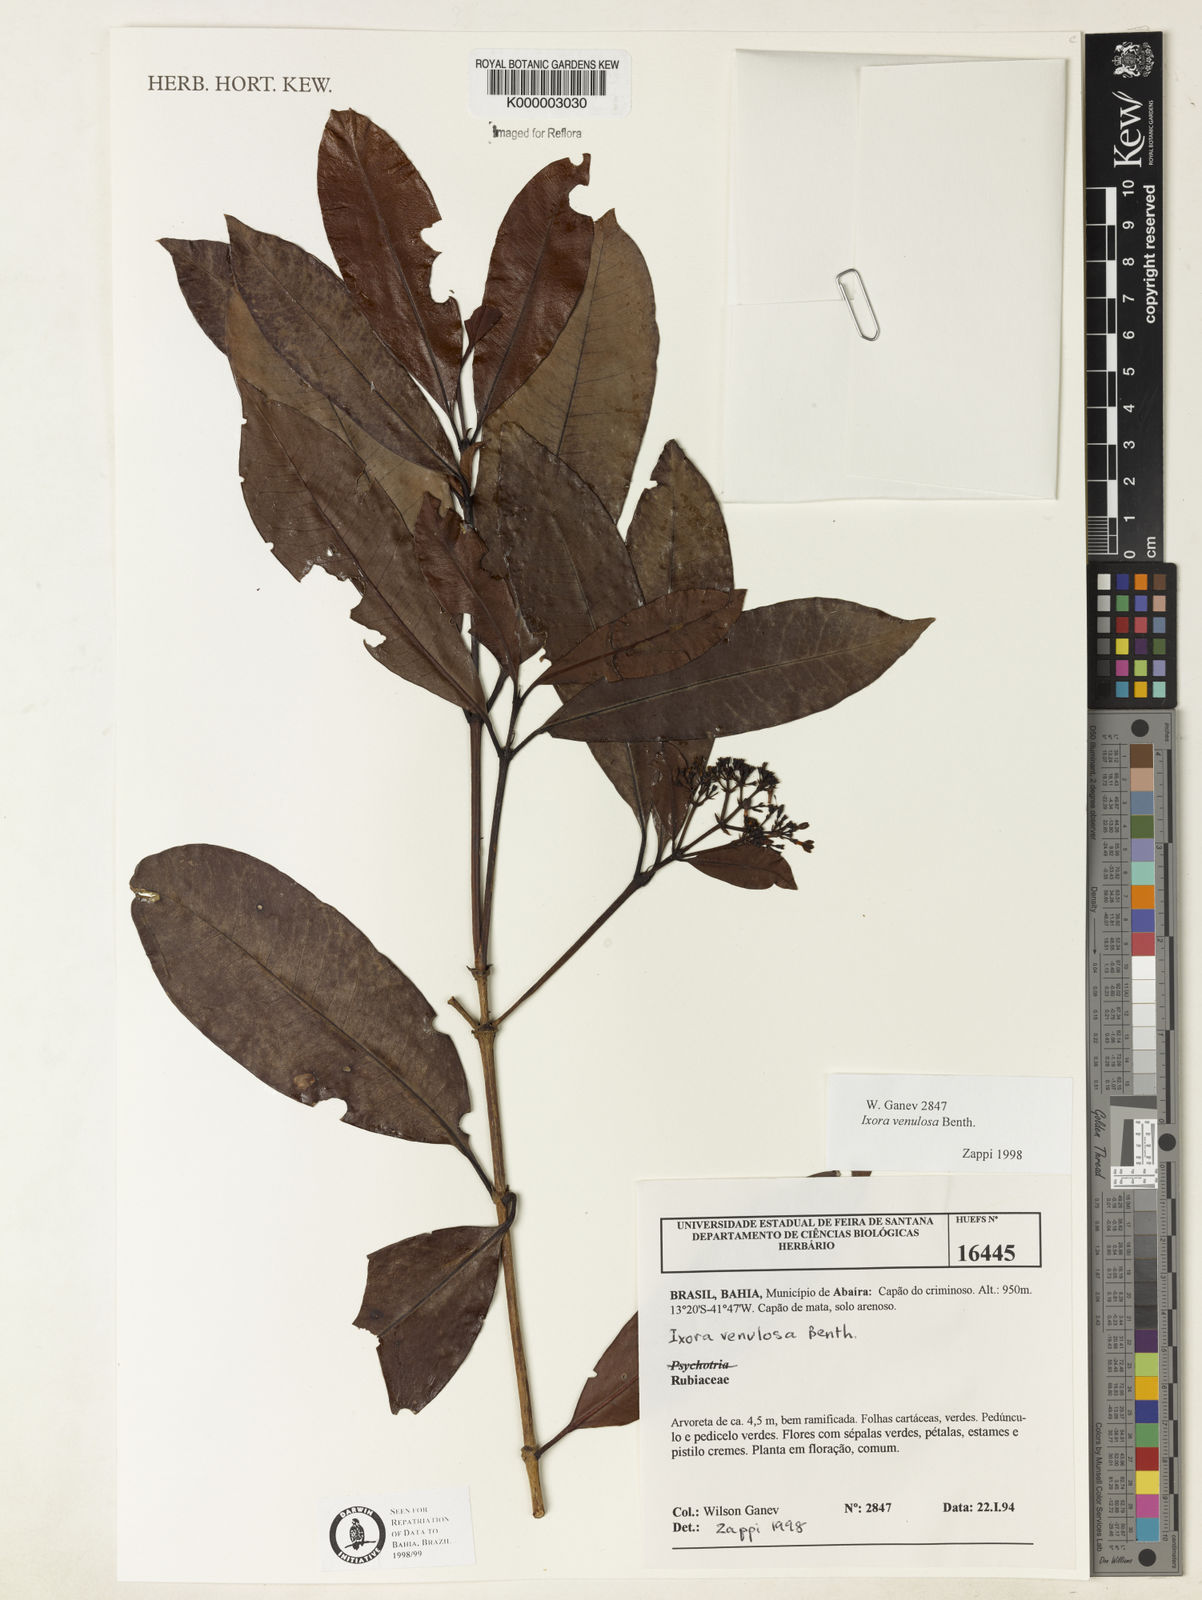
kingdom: Plantae
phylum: Tracheophyta
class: Magnoliopsida
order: Gentianales
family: Rubiaceae
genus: Ixora
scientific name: Ixora venulosa
